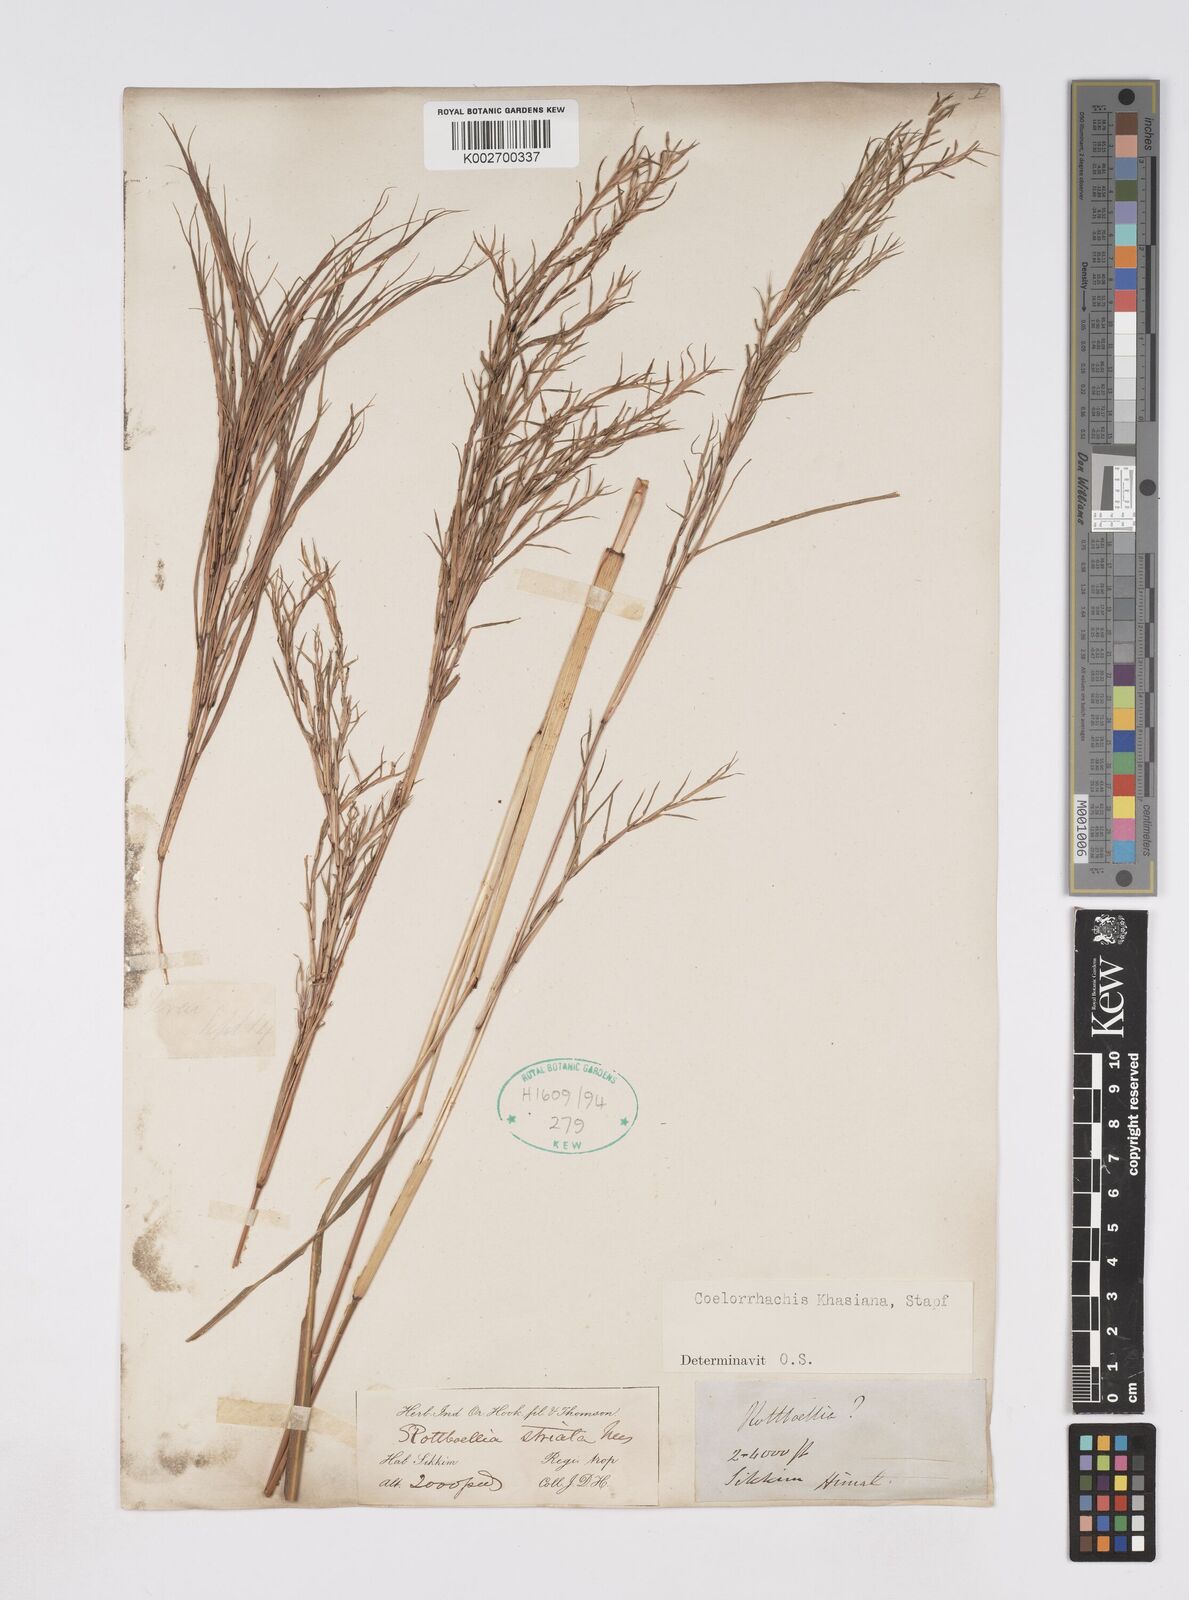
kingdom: Plantae
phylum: Tracheophyta
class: Liliopsida
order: Poales
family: Poaceae
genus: Rottboellia
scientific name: Rottboellia striata
